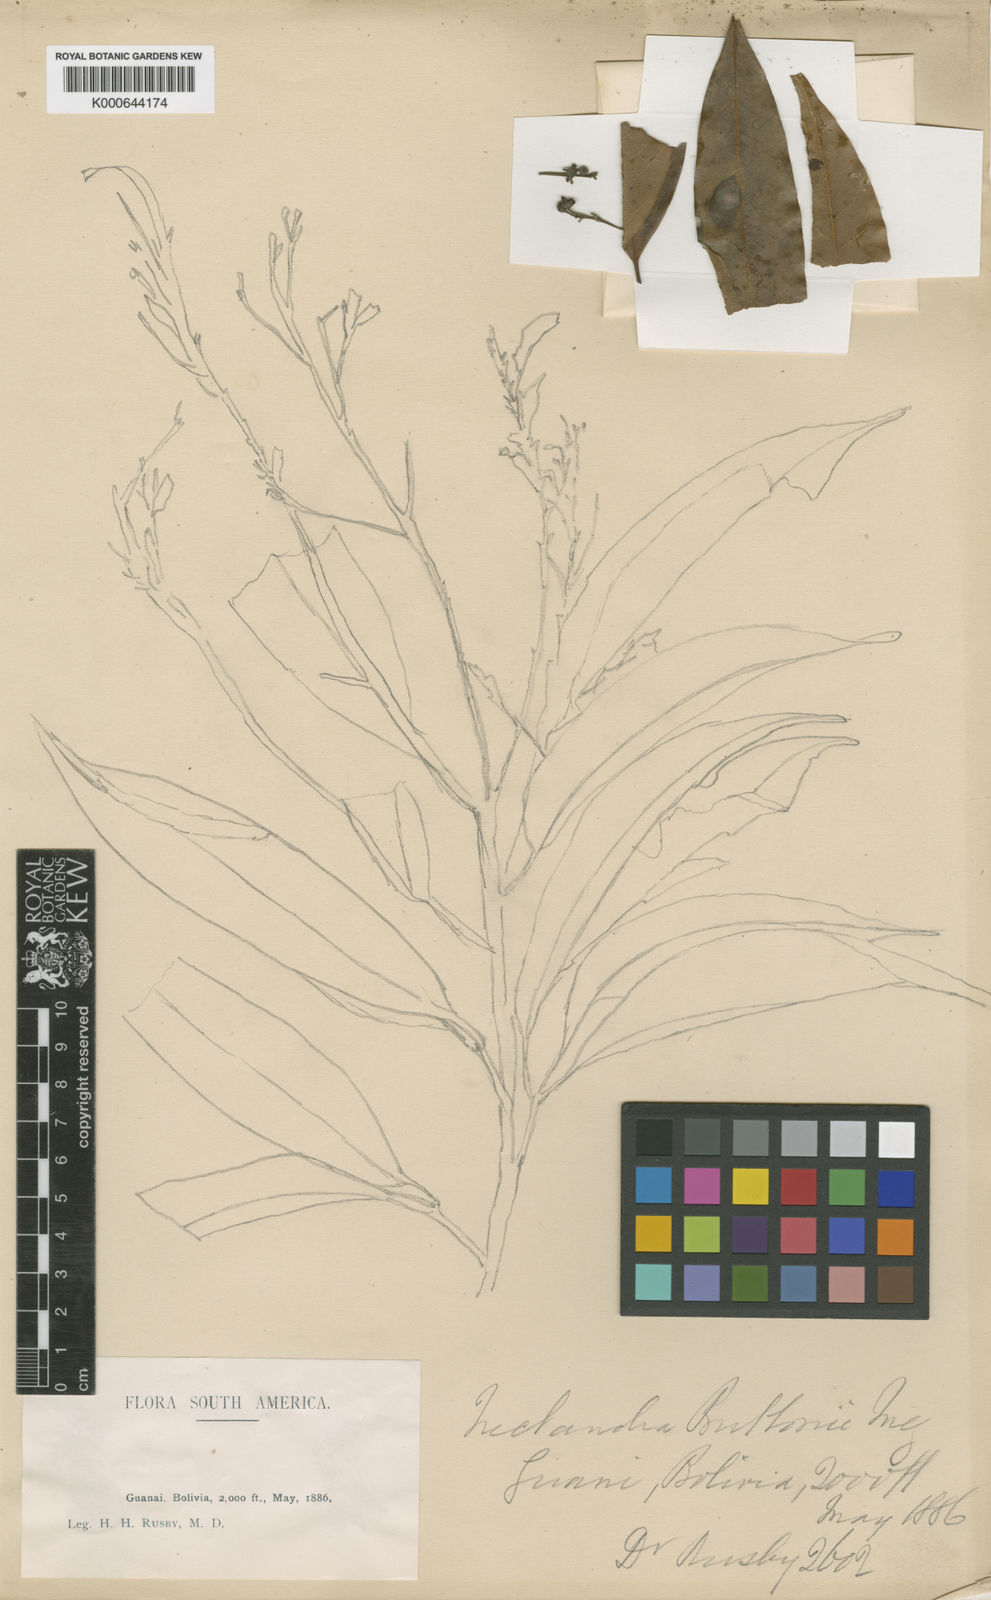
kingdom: Plantae
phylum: Tracheophyta
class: Magnoliopsida
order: Laurales
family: Lauraceae
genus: Nectandra
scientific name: Nectandra brittonii
